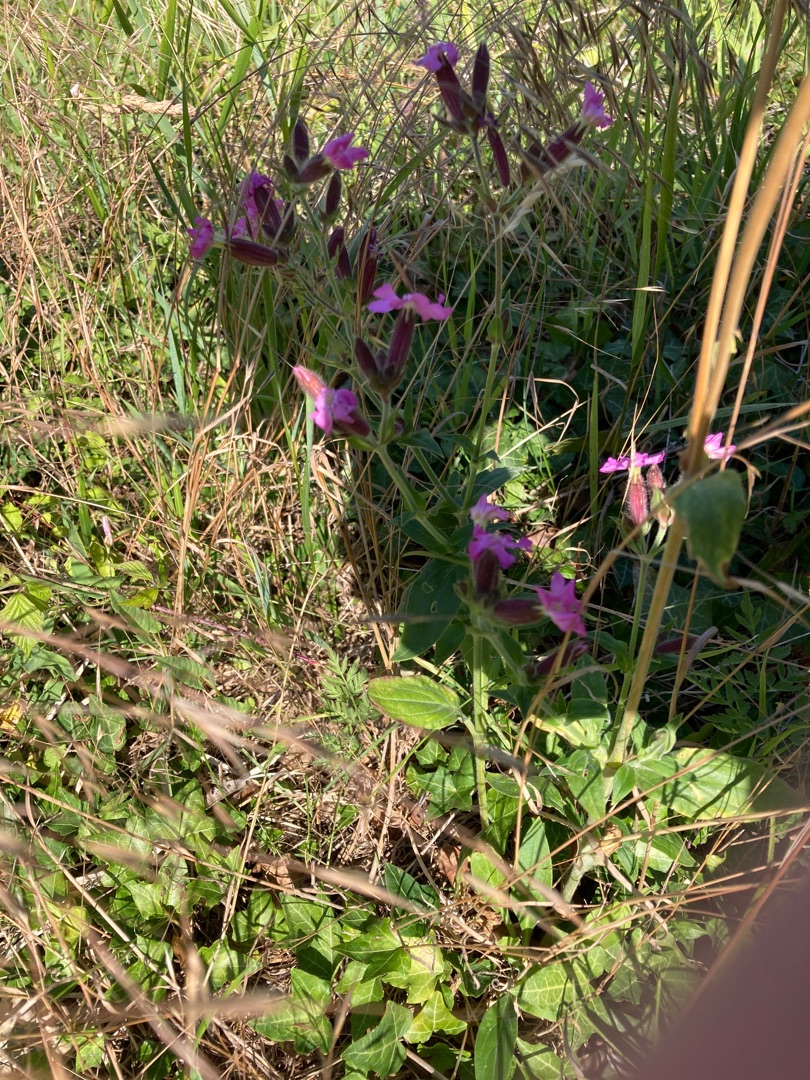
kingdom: Plantae
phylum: Tracheophyta
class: Magnoliopsida
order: Caryophyllales
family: Caryophyllaceae
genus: Silene
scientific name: Silene dioica
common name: Dagpragtstjerne
